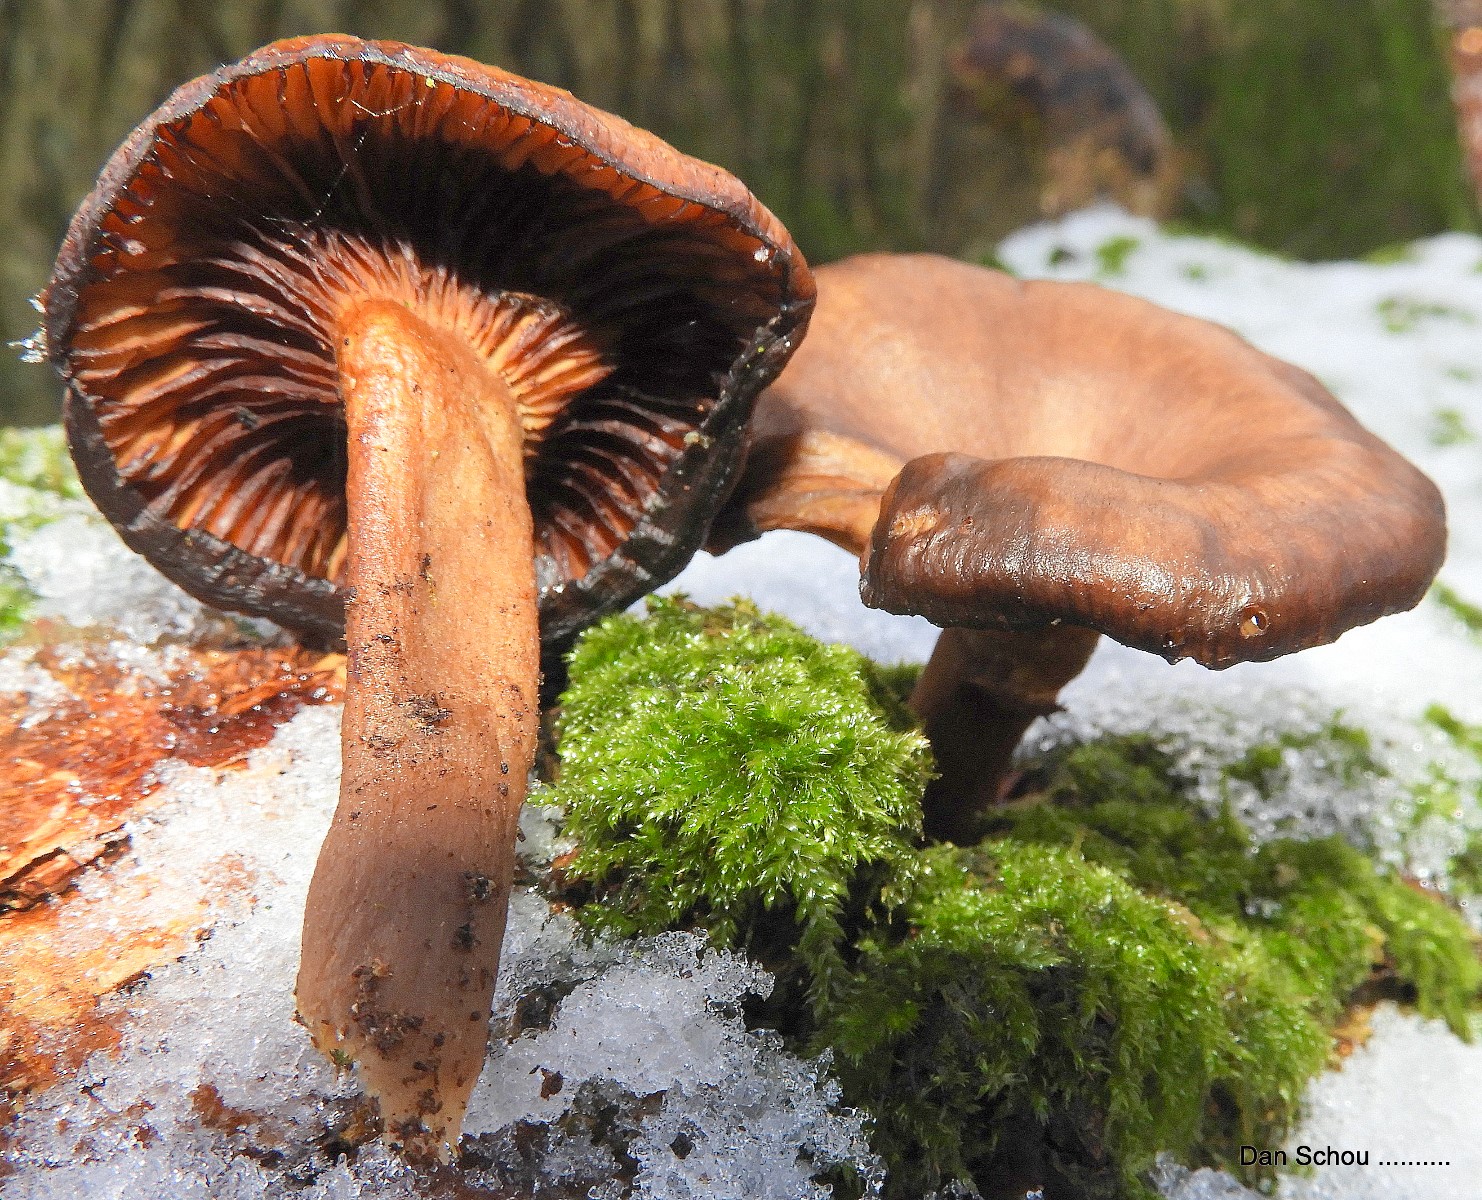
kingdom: Fungi
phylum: Basidiomycota
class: Agaricomycetes
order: Agaricales
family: Pseudoclitocybaceae
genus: Pseudoclitocybe
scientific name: Pseudoclitocybe cyathiformis
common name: almindelig bægertragthat
